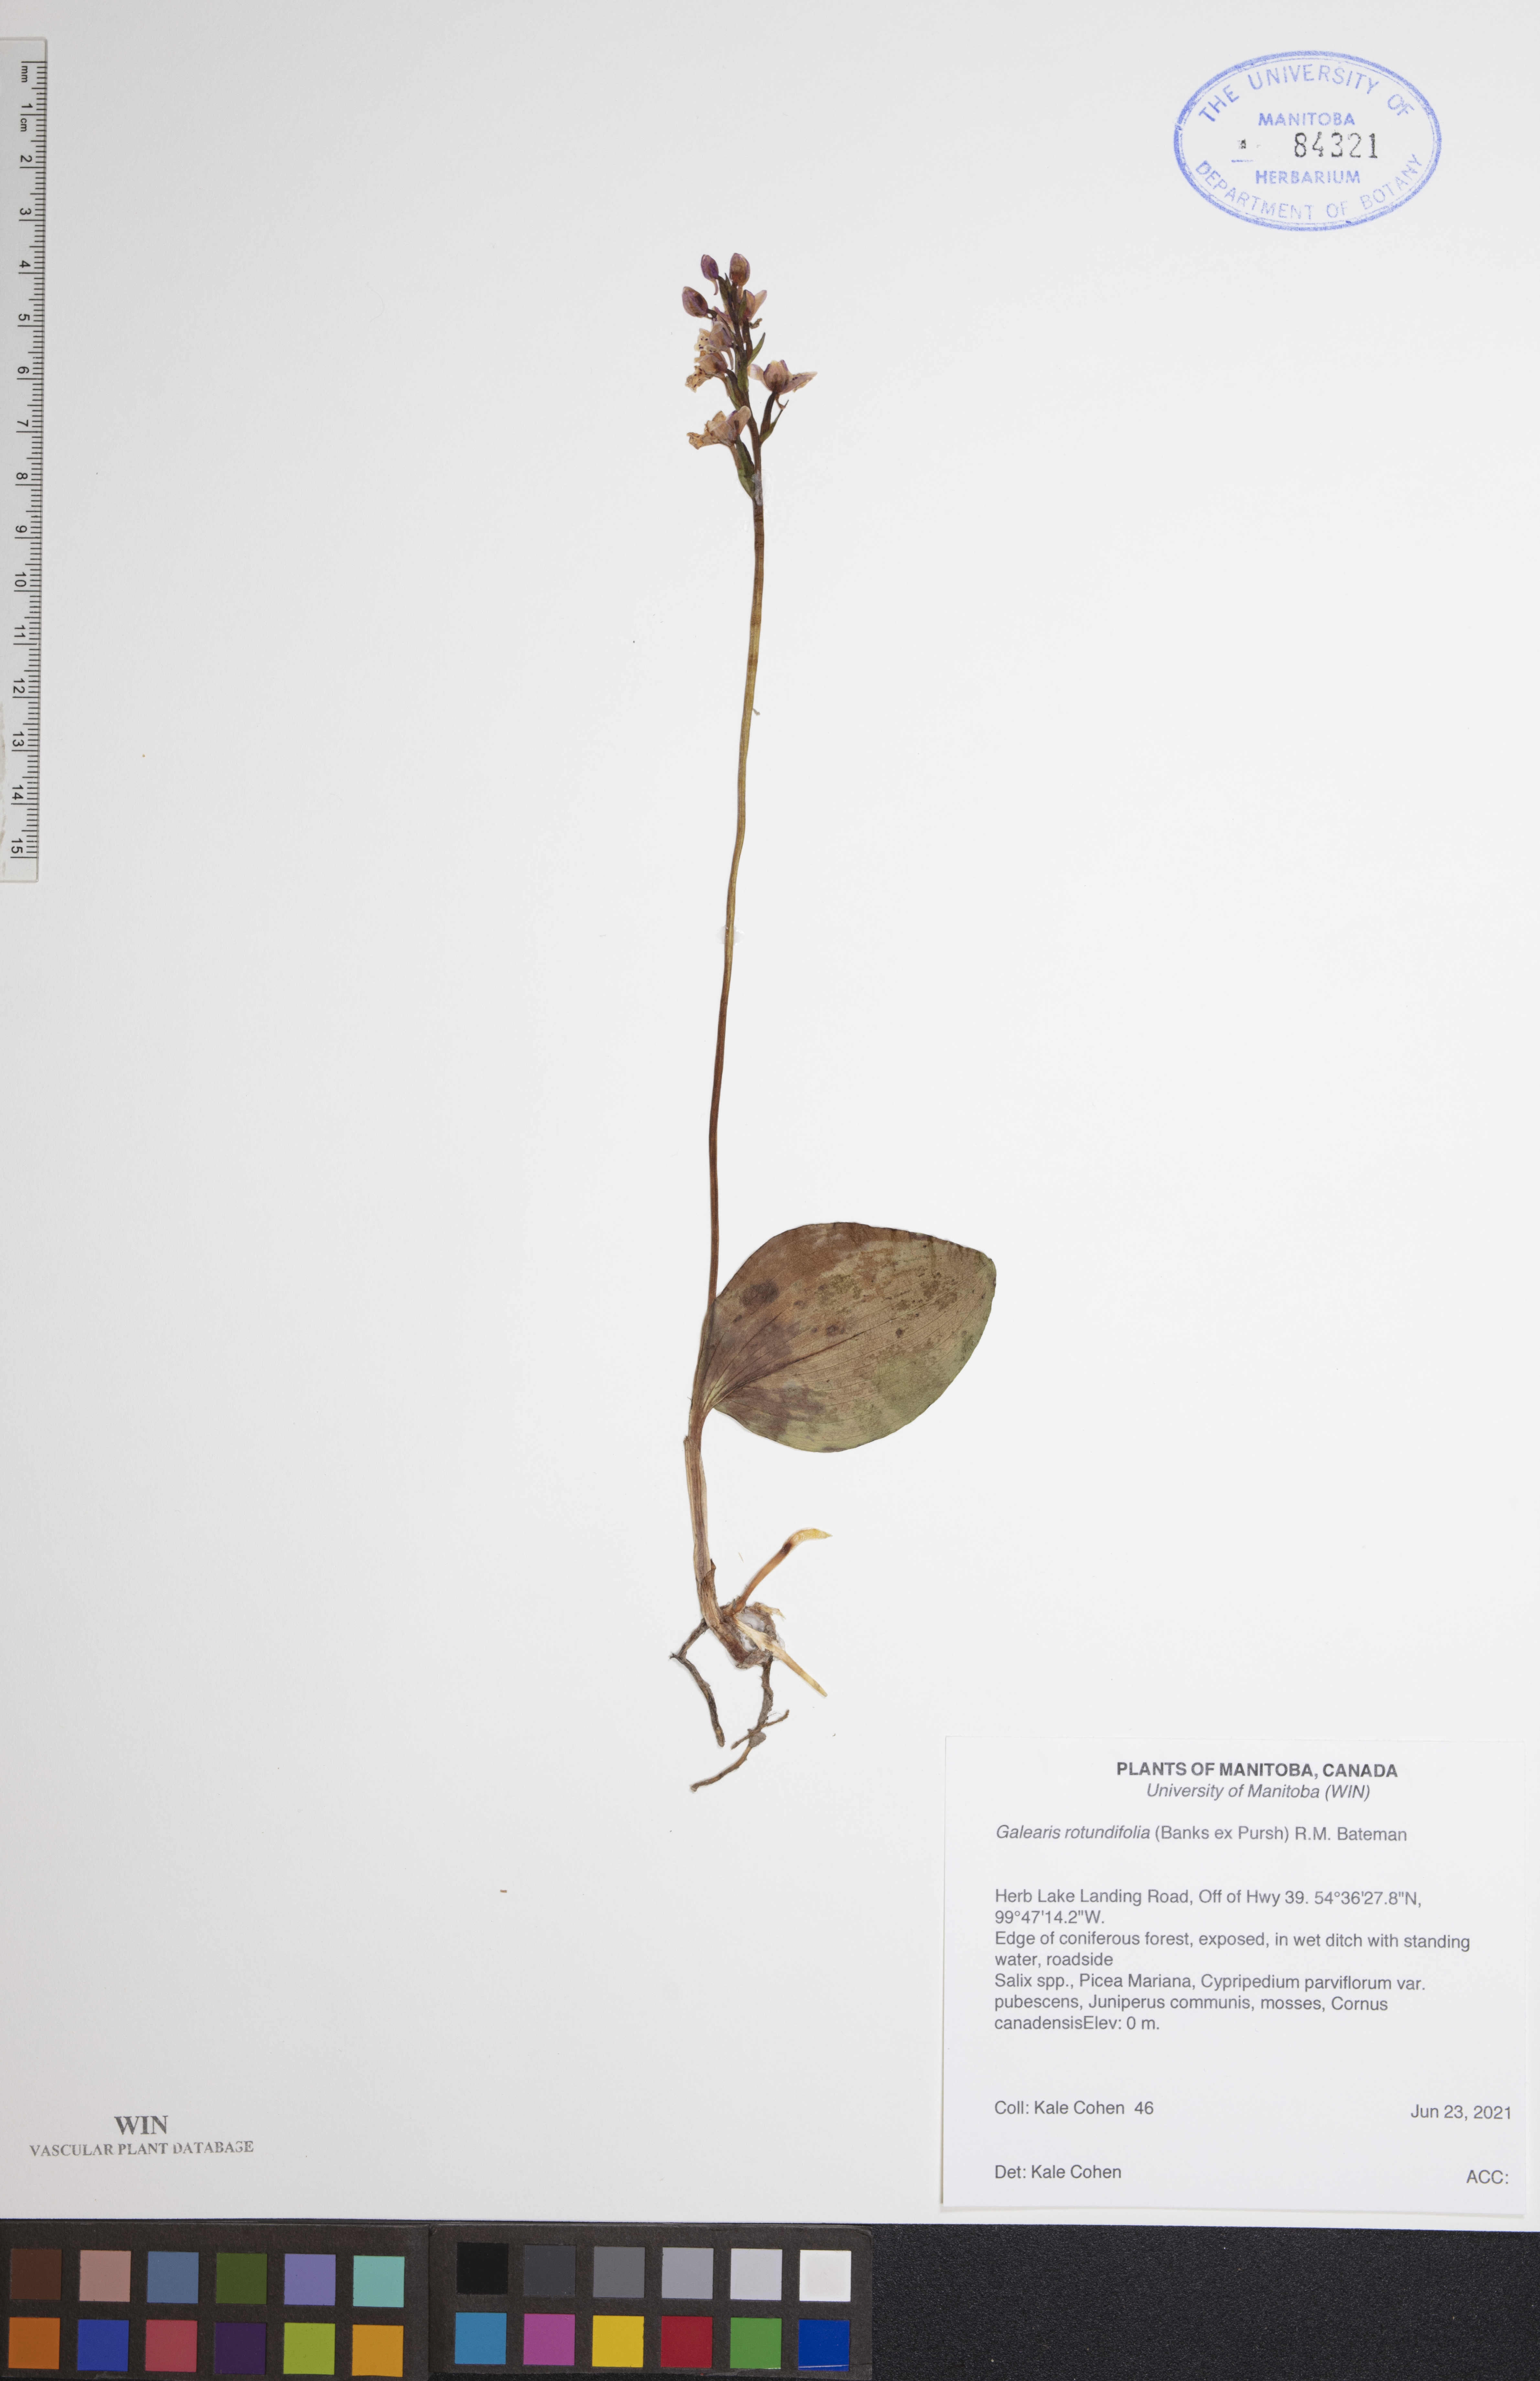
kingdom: Plantae
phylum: Tracheophyta
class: Liliopsida
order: Asparagales
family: Orchidaceae
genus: Galearis
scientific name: Galearis rotundifolia
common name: One-leaved orchis
